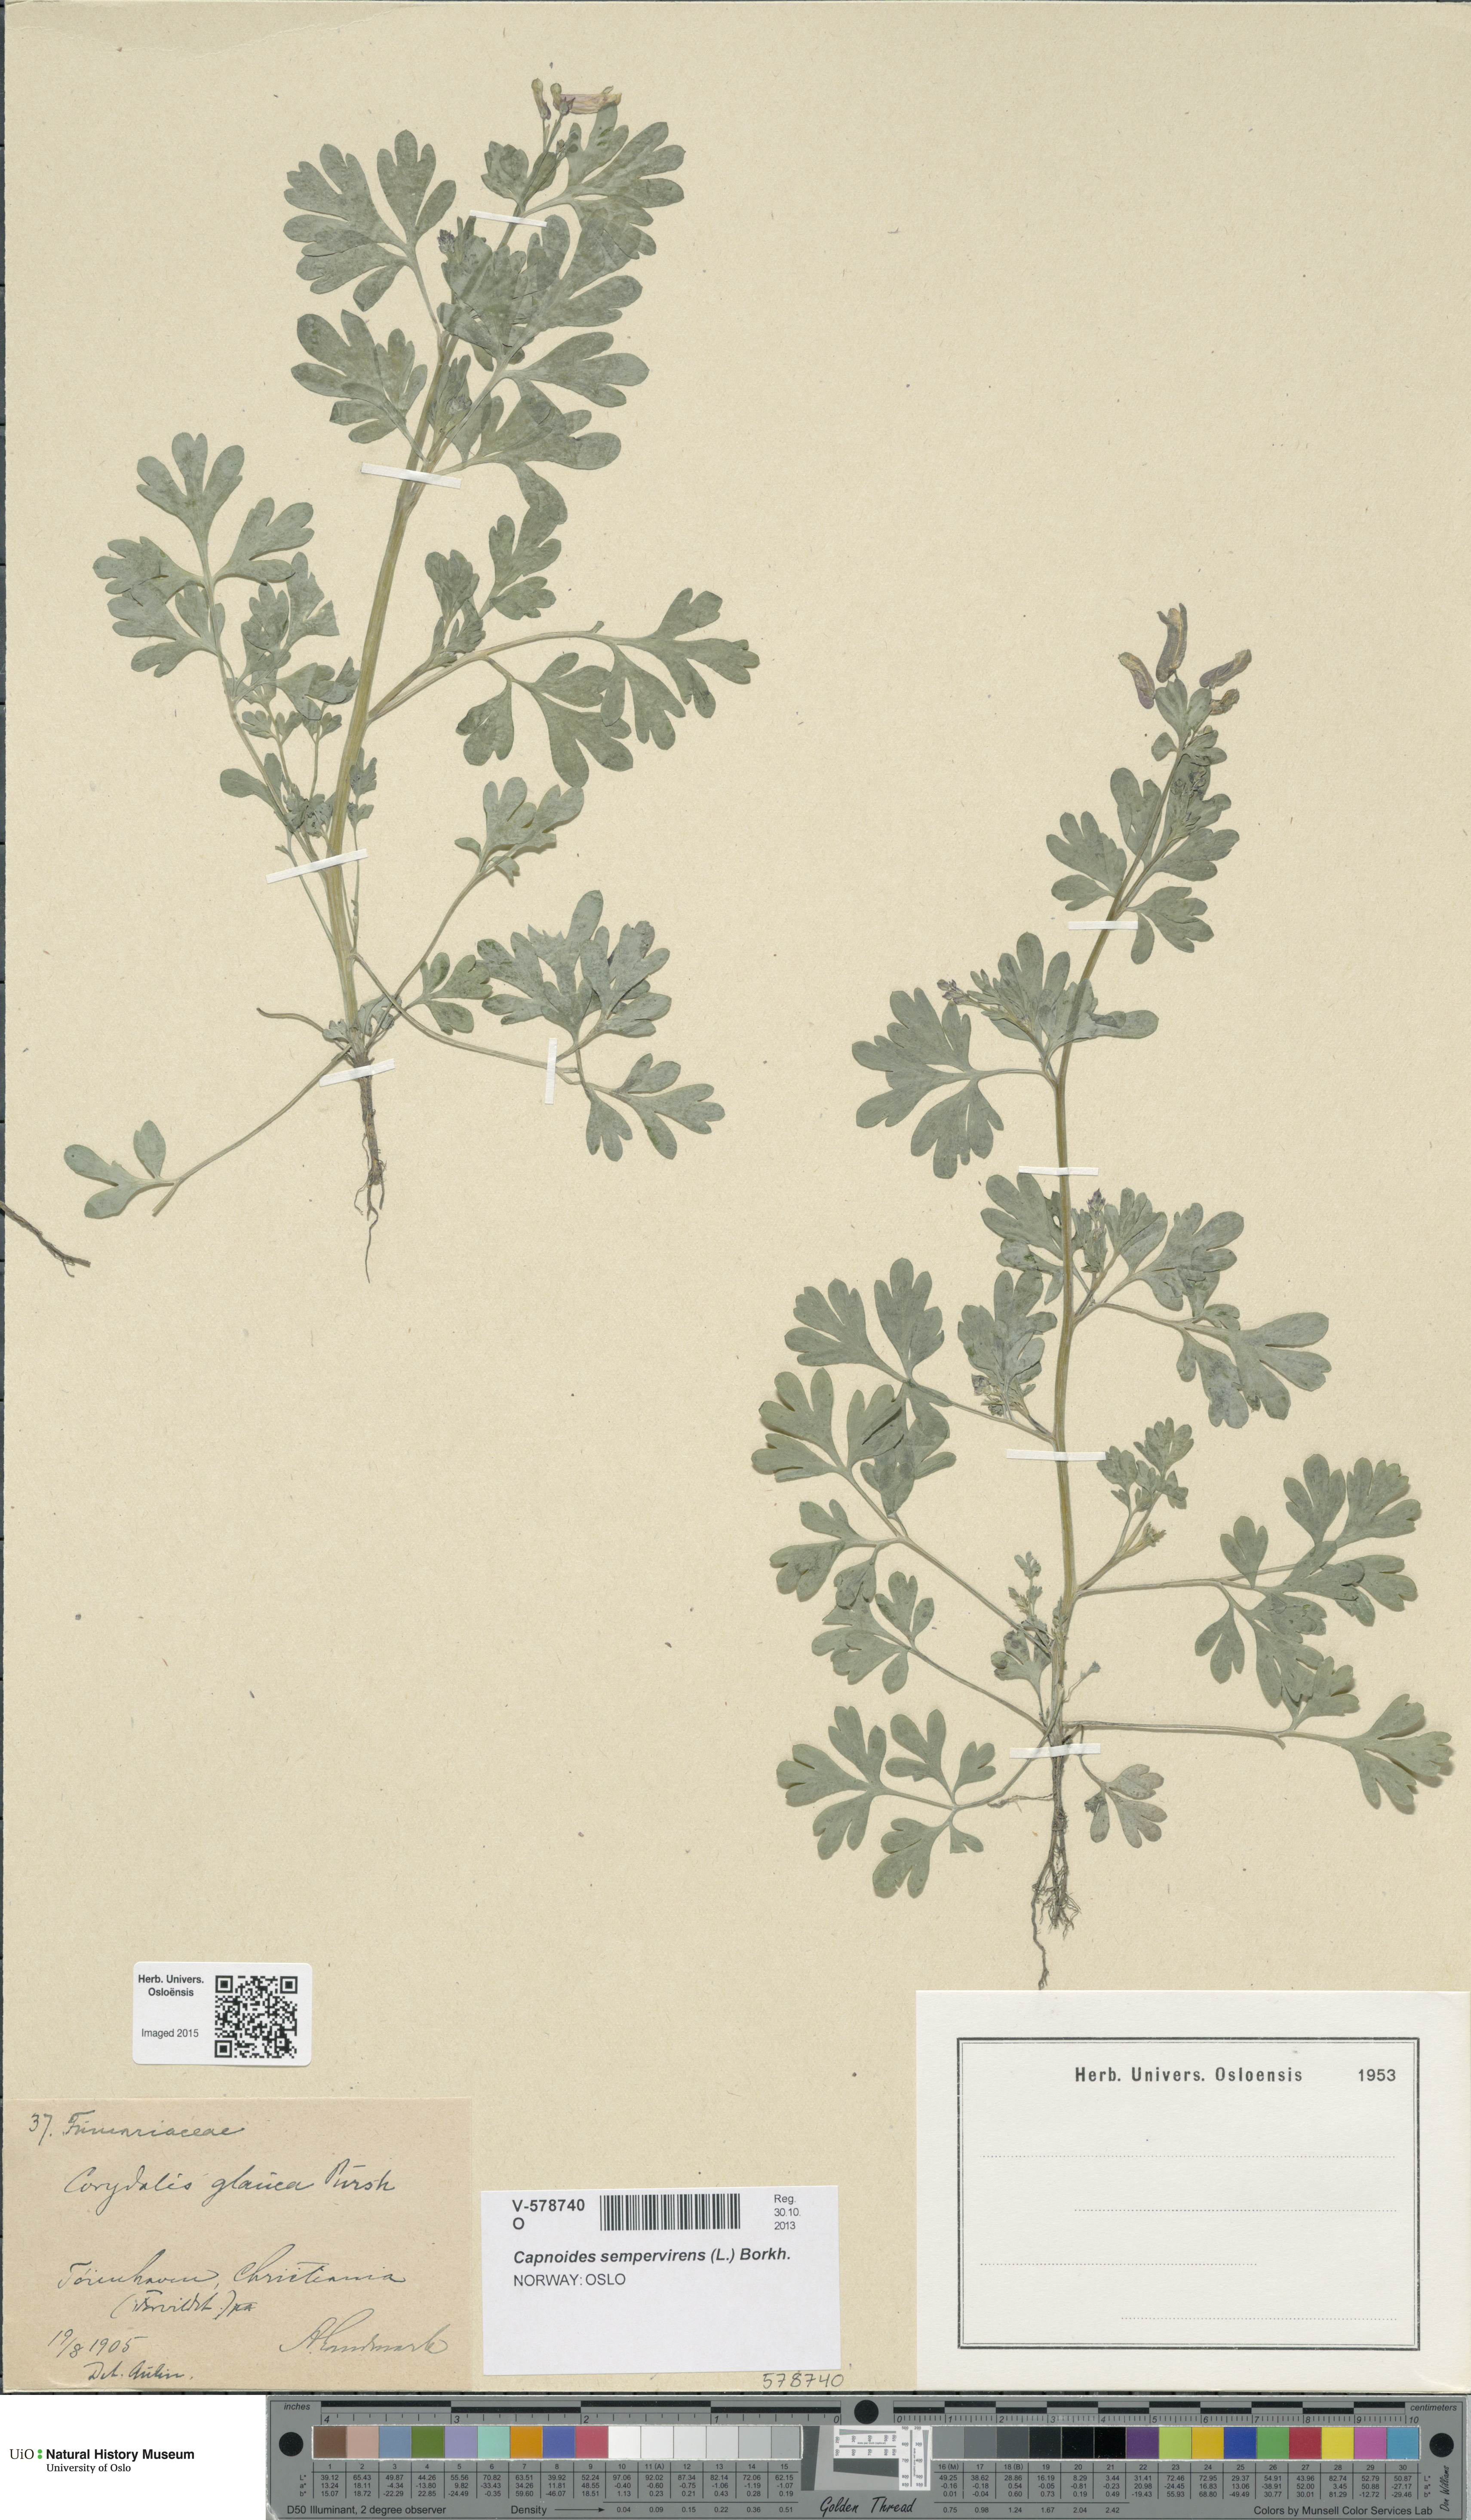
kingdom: Plantae
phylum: Tracheophyta
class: Magnoliopsida
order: Ranunculales
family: Papaveraceae
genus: Capnoides
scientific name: Capnoides sempervirens
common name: Rock harlequin
